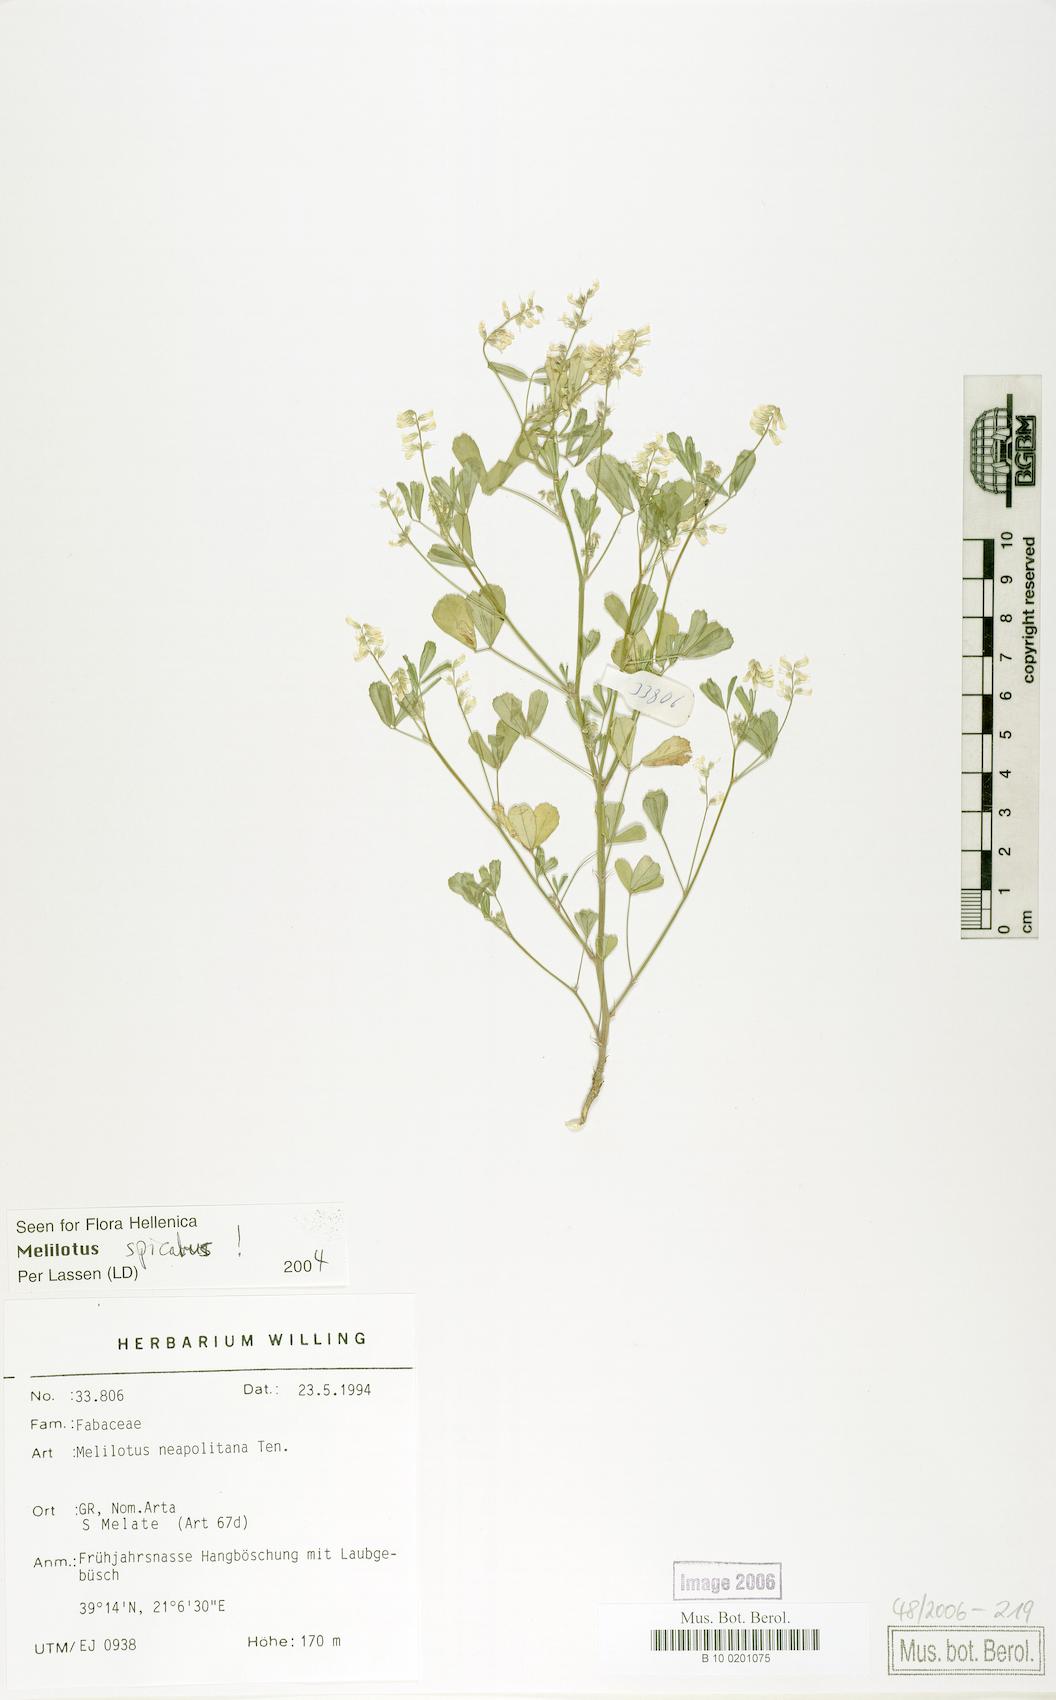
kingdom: Plantae
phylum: Tracheophyta
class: Magnoliopsida
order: Fabales
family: Fabaceae
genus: Melilotus
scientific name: Melilotus neapolitanus
